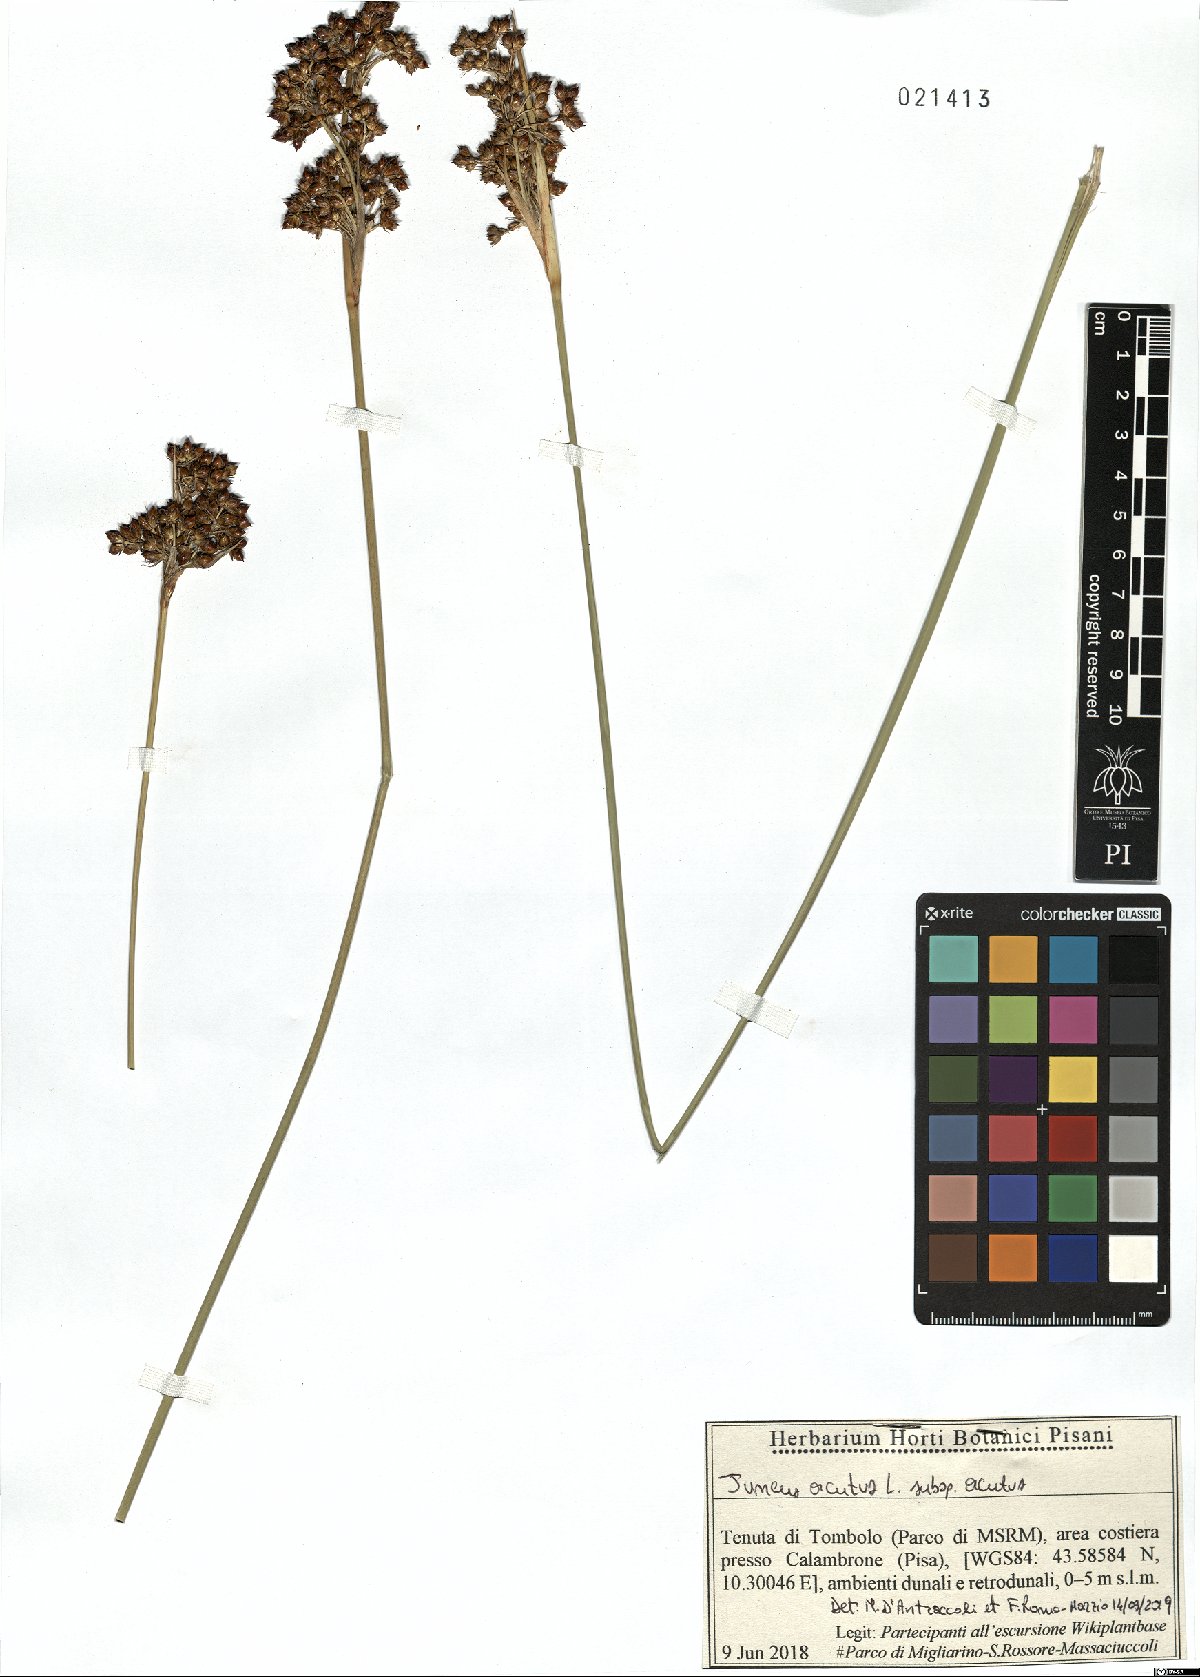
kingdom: Plantae
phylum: Tracheophyta
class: Liliopsida
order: Poales
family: Juncaceae
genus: Juncus
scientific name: Juncus acutus
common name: Sharp rush
